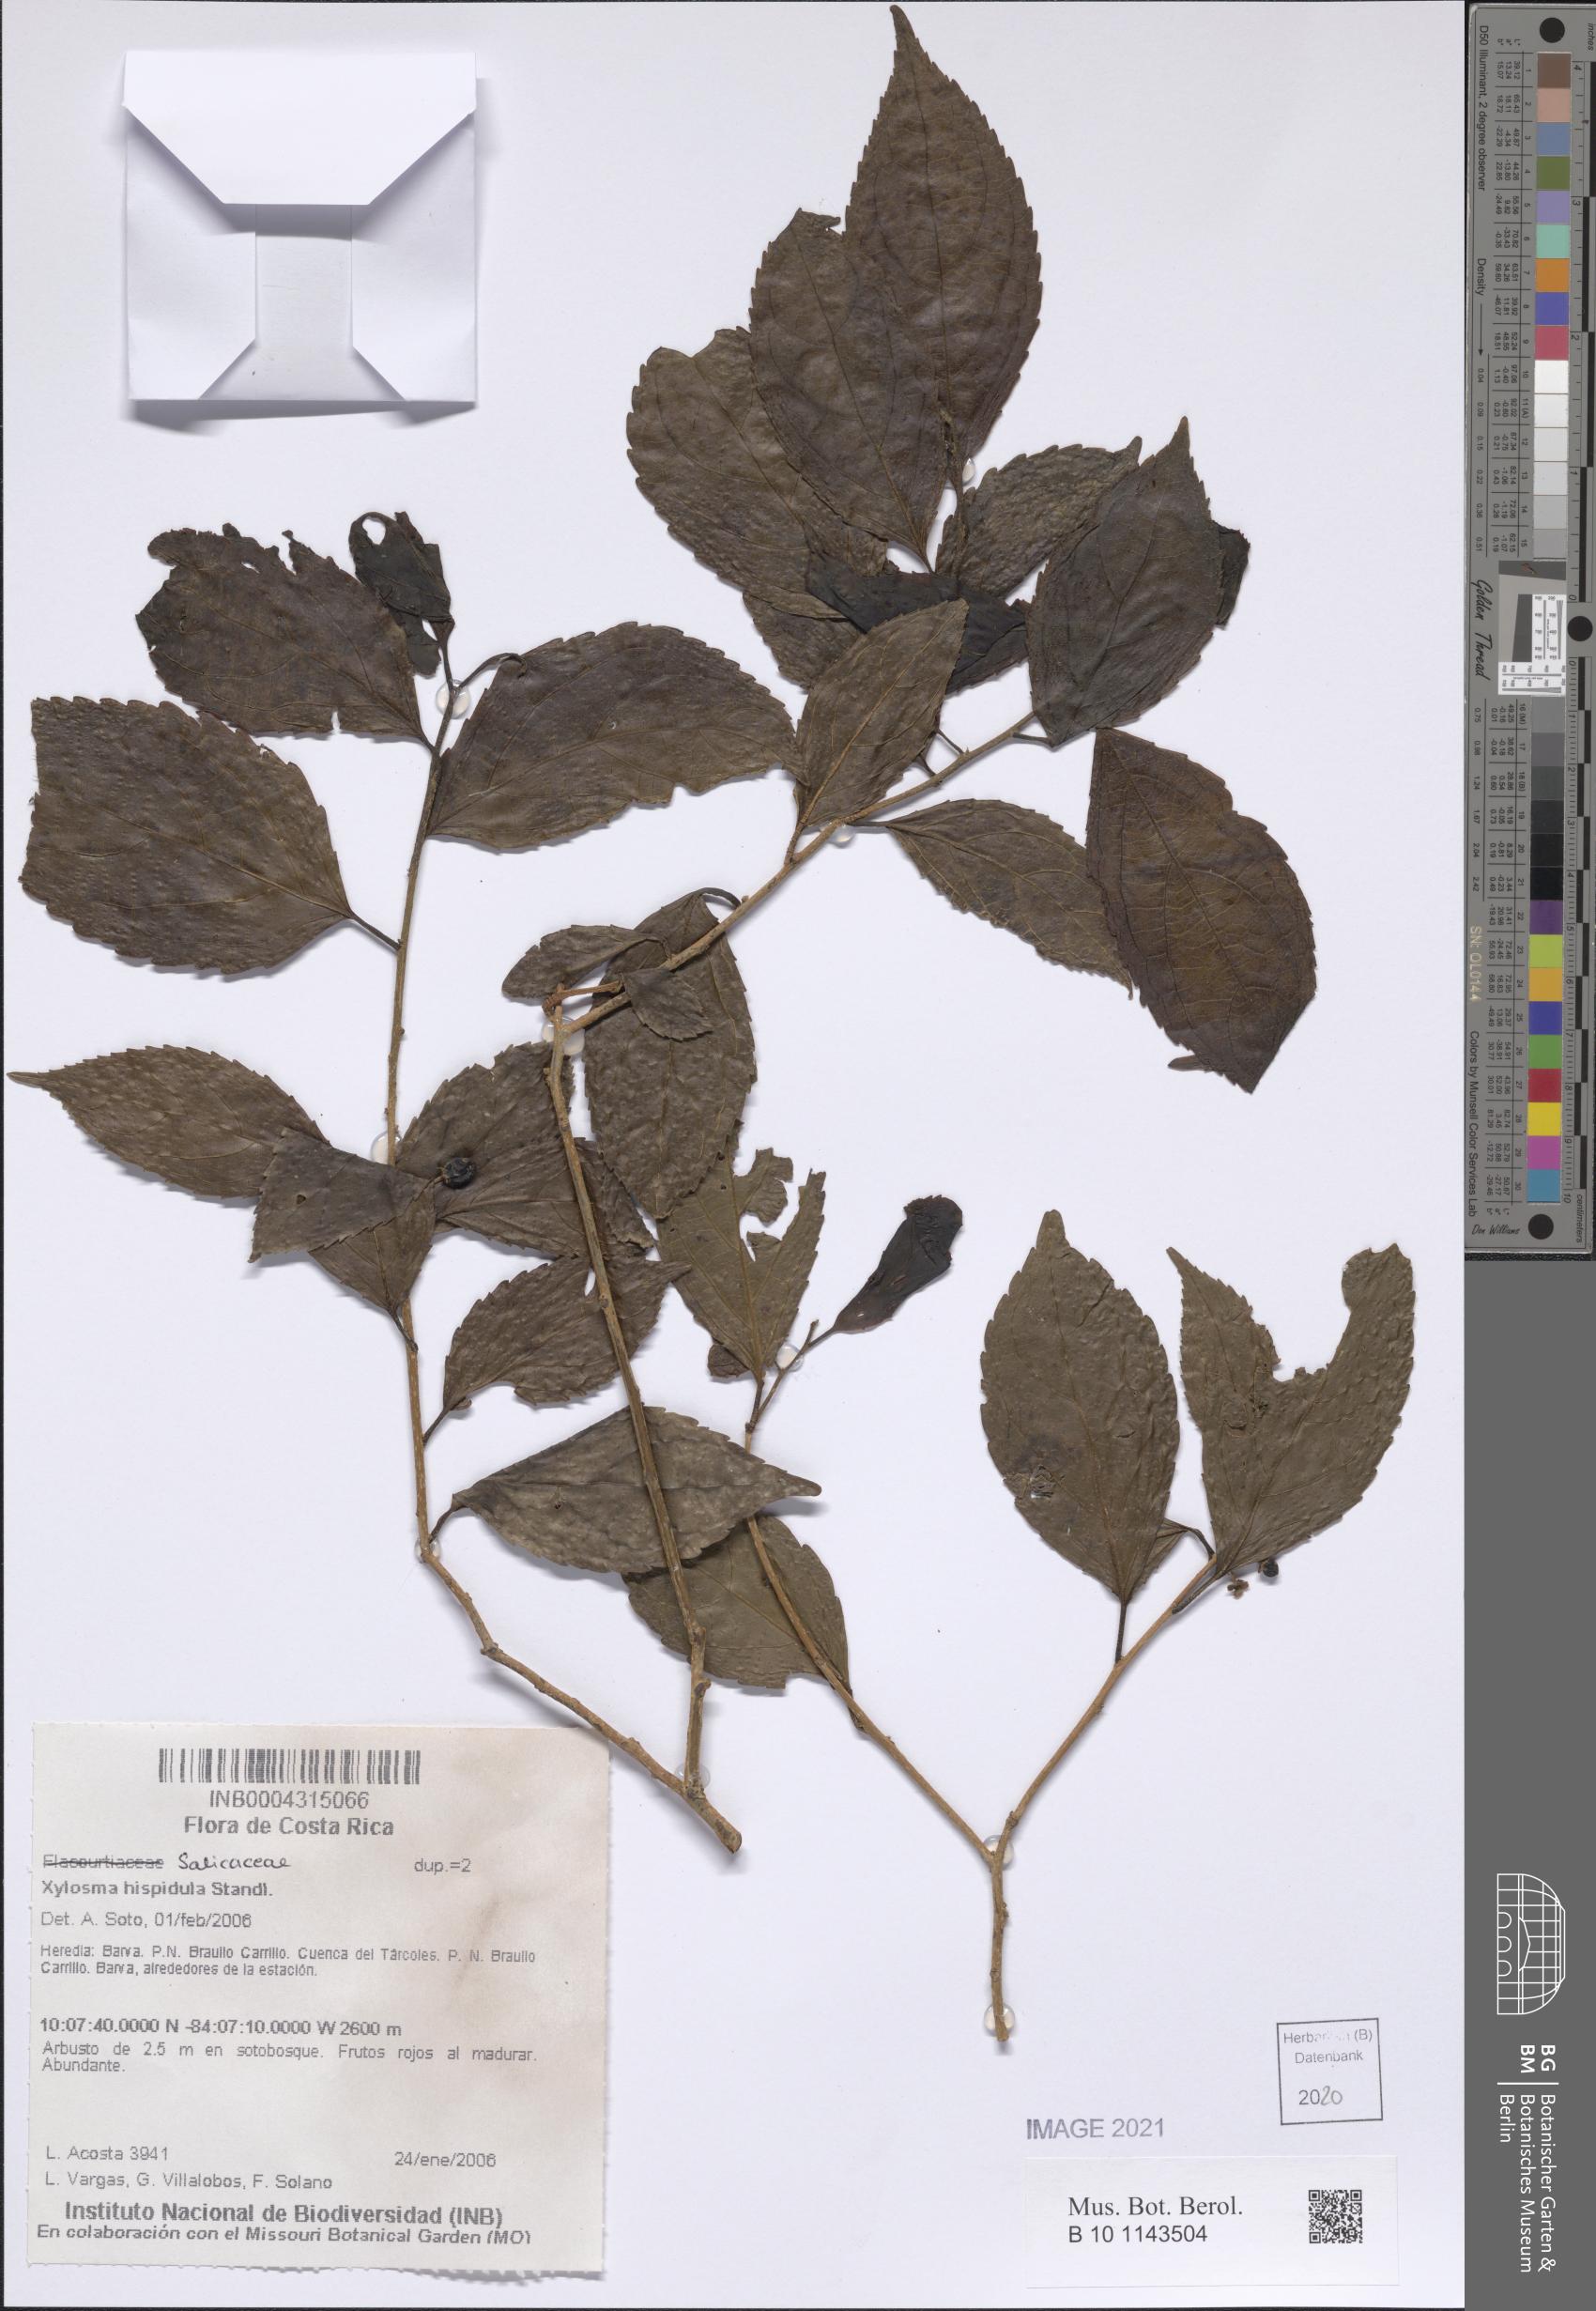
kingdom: Plantae
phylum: Tracheophyta
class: Magnoliopsida
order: Malpighiales
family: Salicaceae
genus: Xylosma
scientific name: Xylosma hispidula
